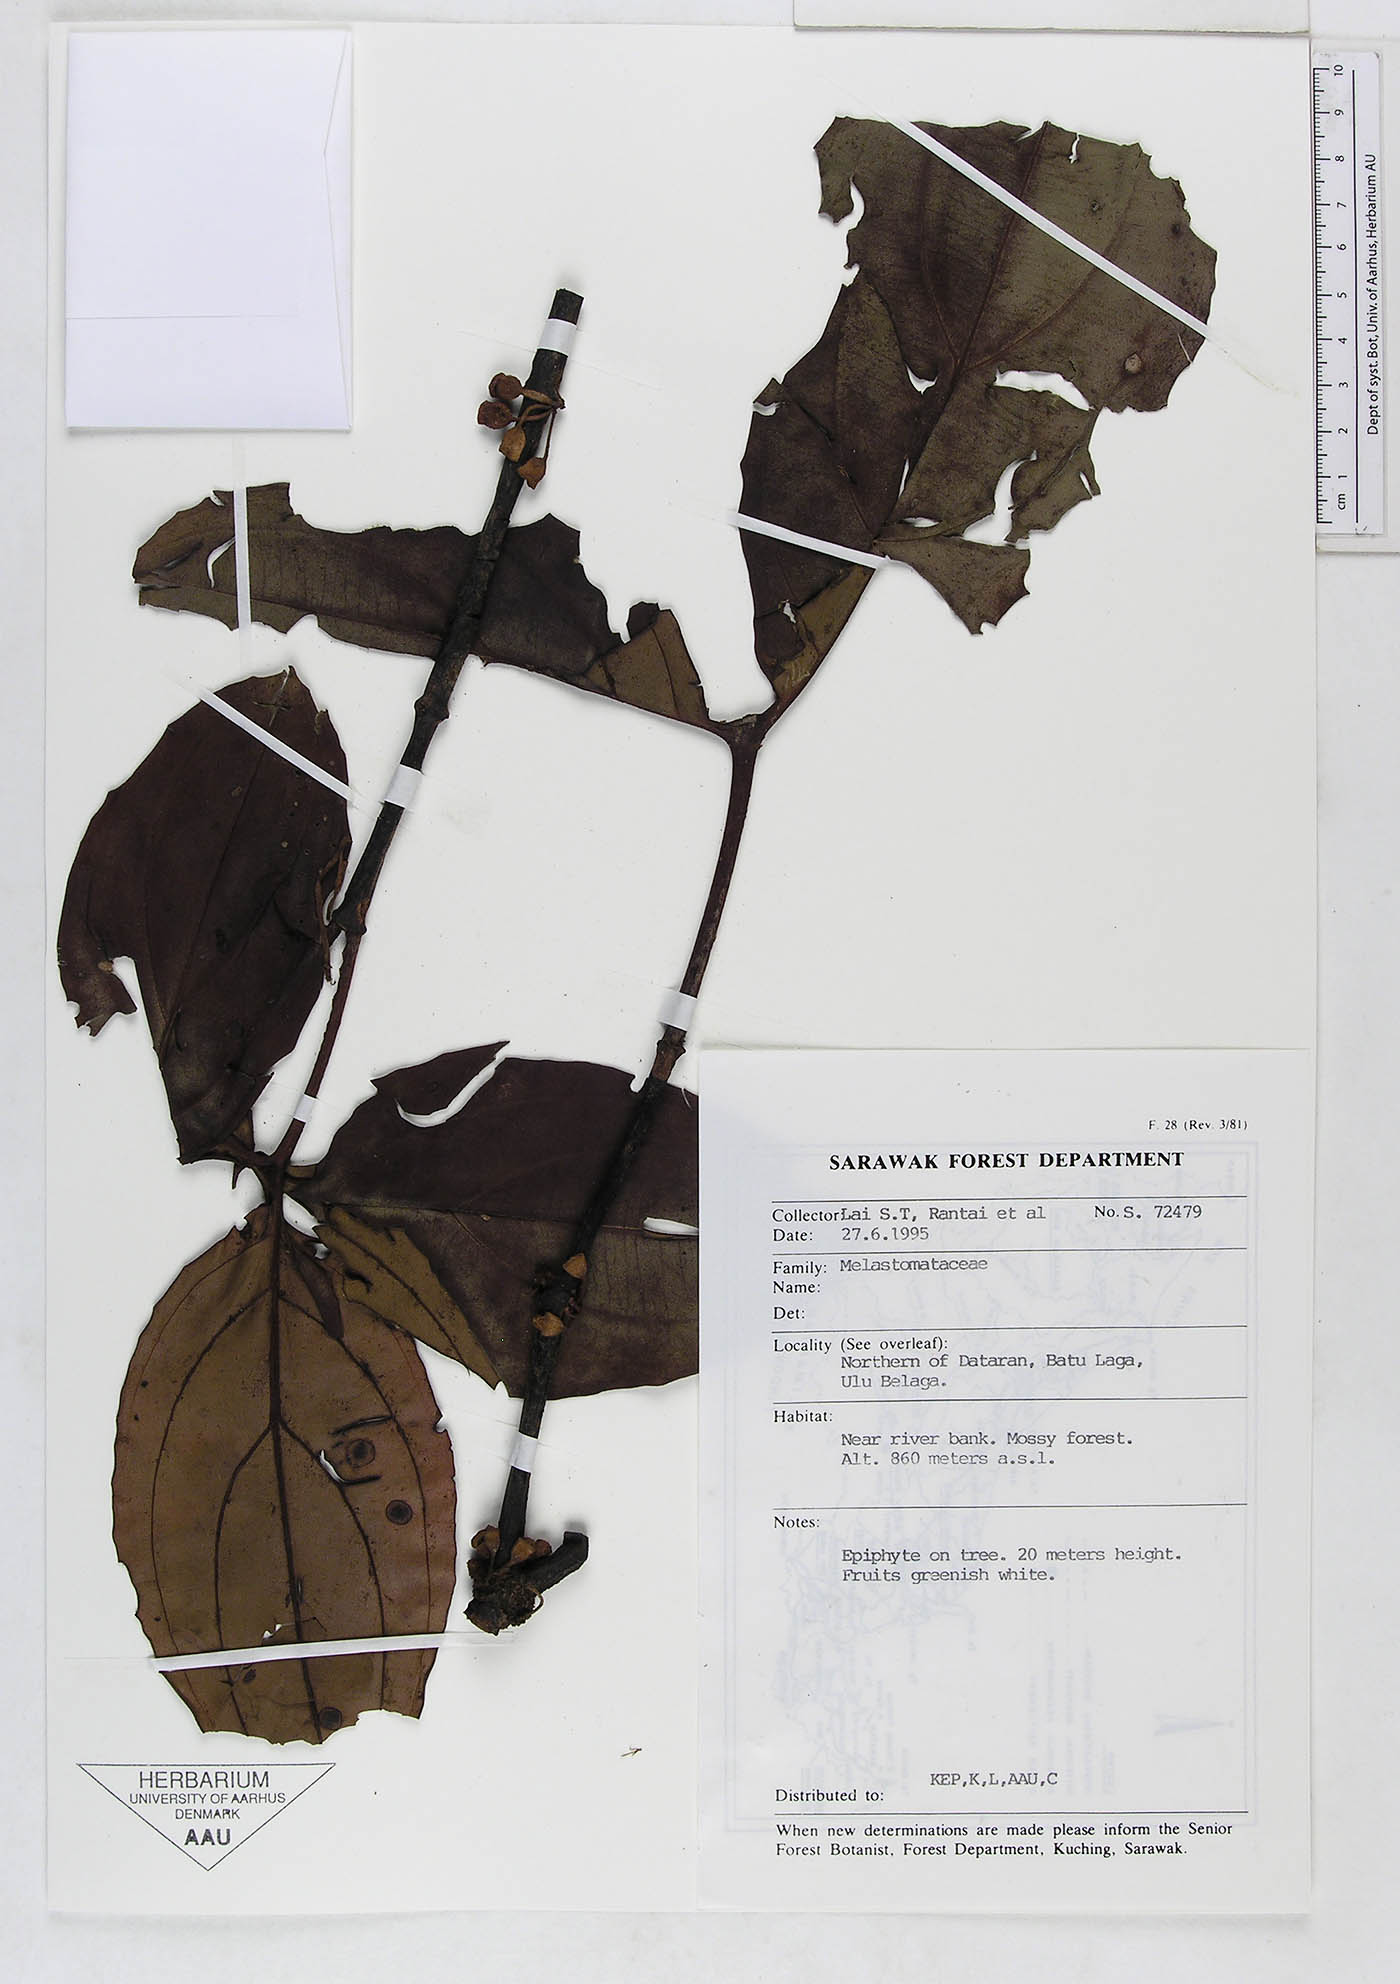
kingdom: Plantae
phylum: Tracheophyta
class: Magnoliopsida
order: Myrtales
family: Melastomataceae
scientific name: Melastomataceae
